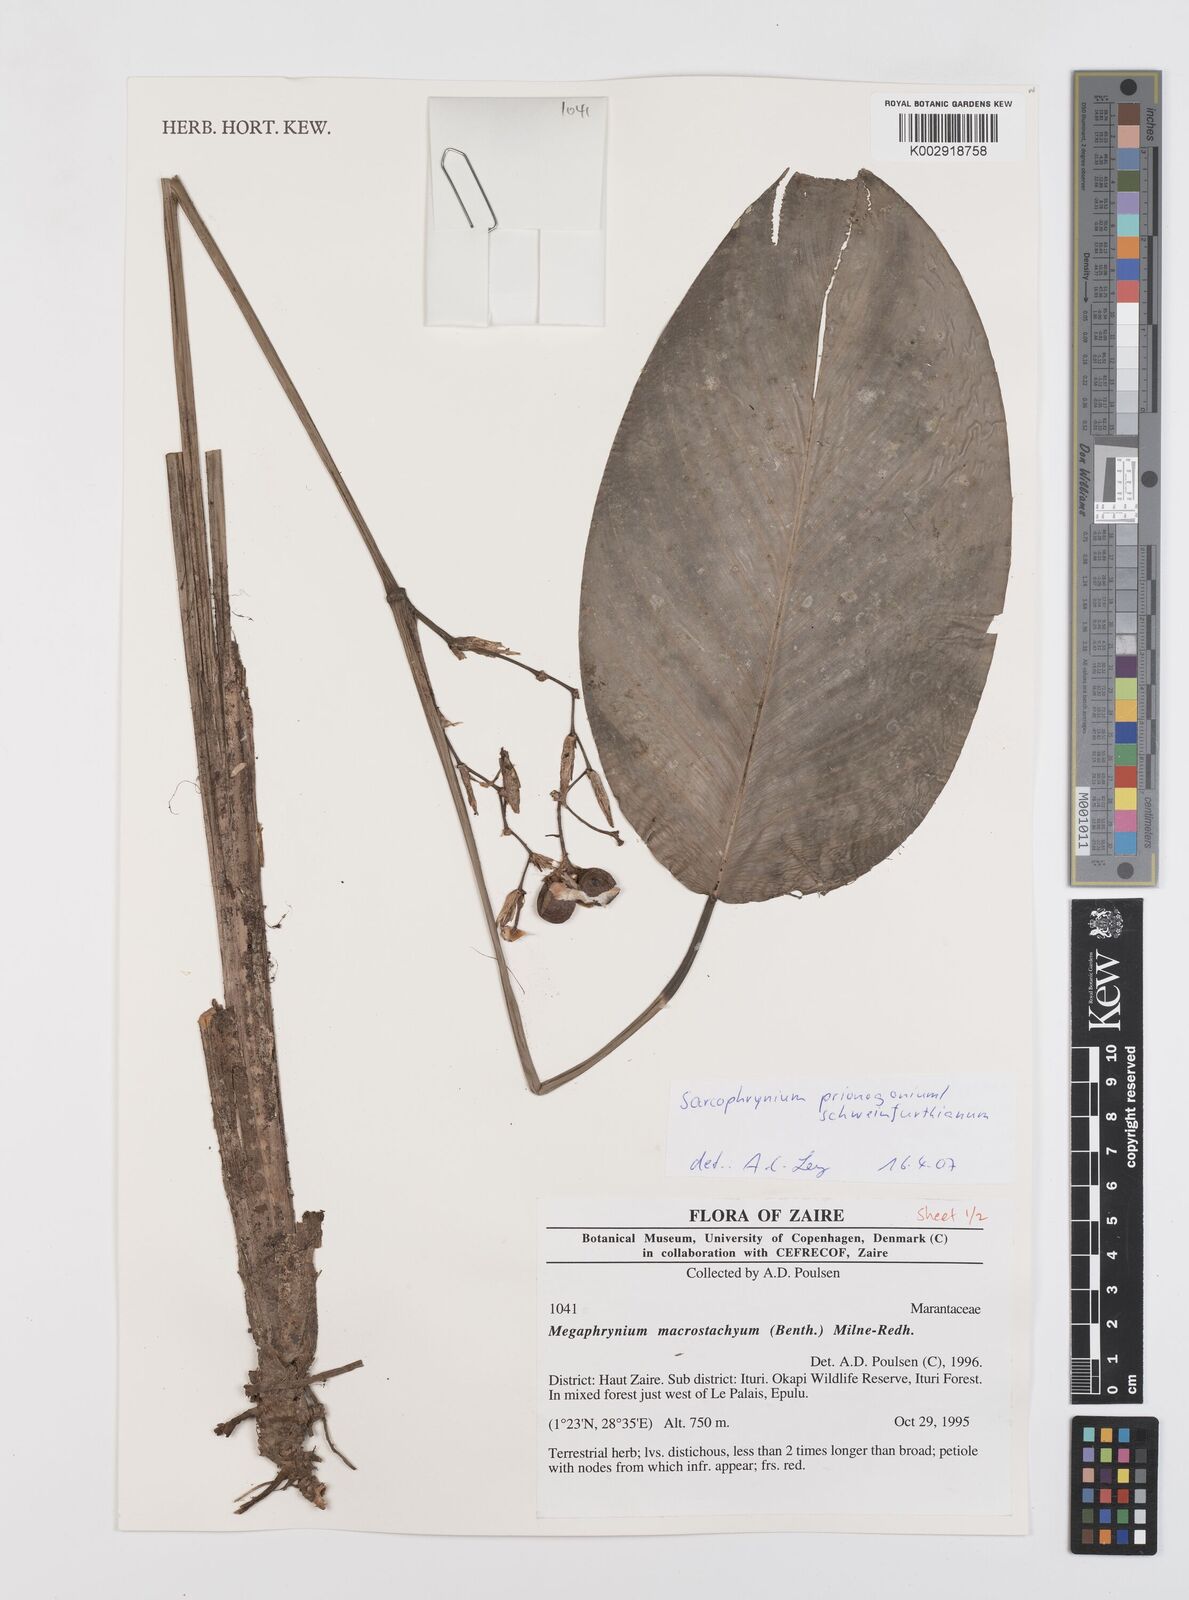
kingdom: Plantae
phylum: Tracheophyta
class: Liliopsida
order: Zingiberales
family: Marantaceae
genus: Sarcophrynium
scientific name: Sarcophrynium prionogonium
